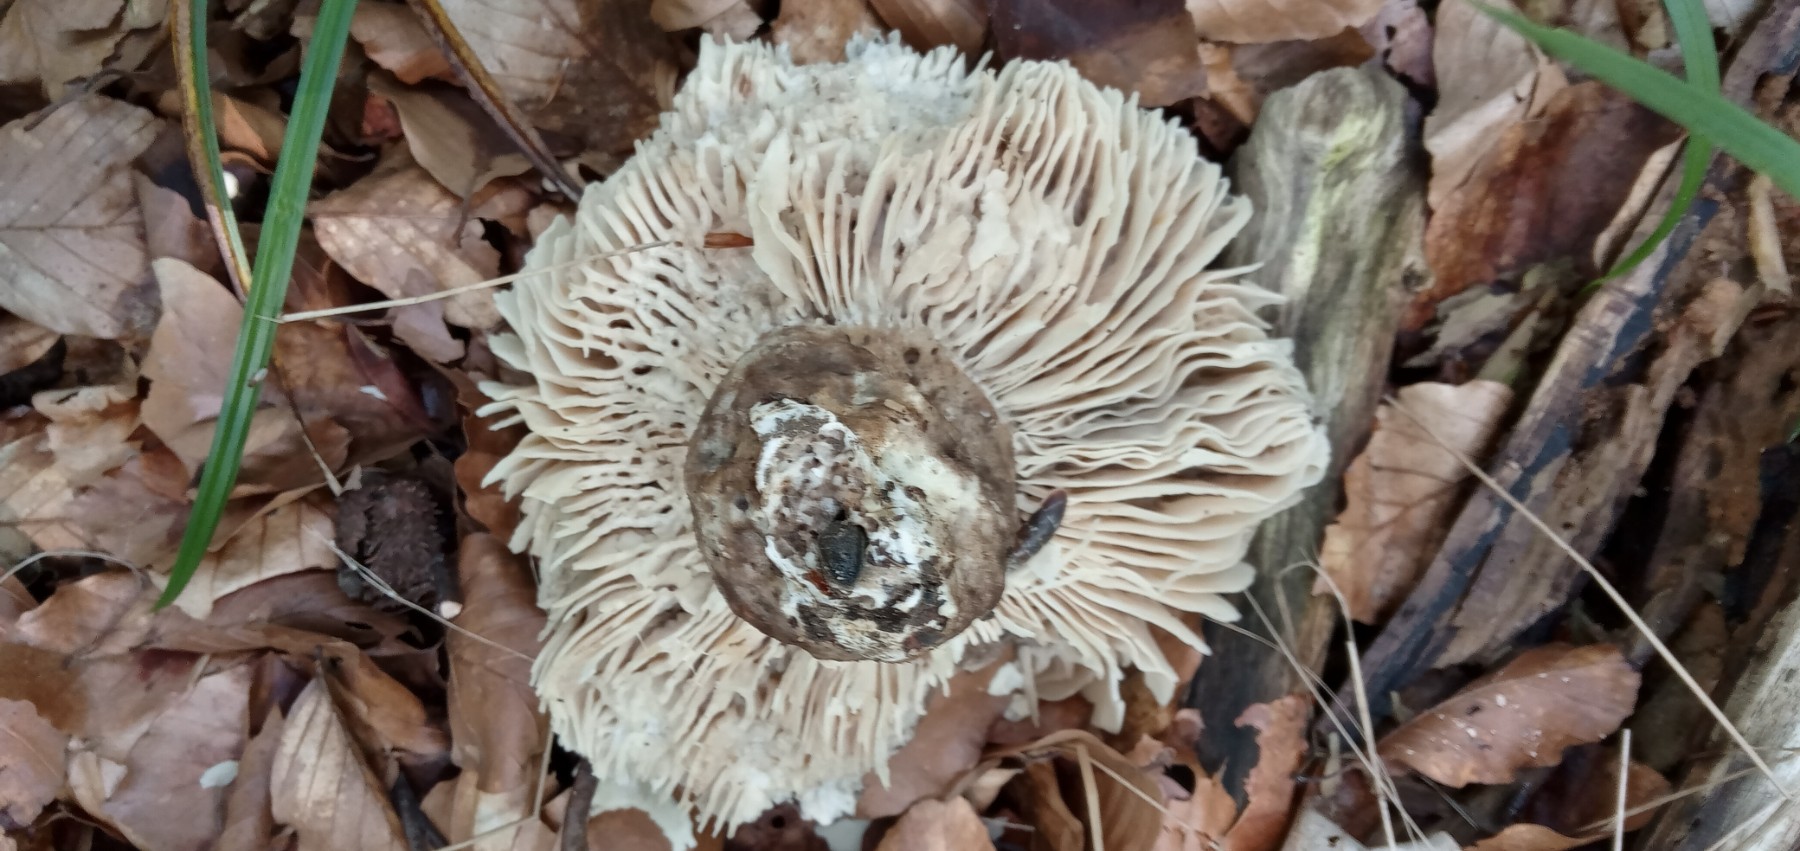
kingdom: Fungi
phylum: Basidiomycota
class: Agaricomycetes
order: Russulales
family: Russulaceae
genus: Russula
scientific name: Russula adusta
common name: sværtende skørhat
